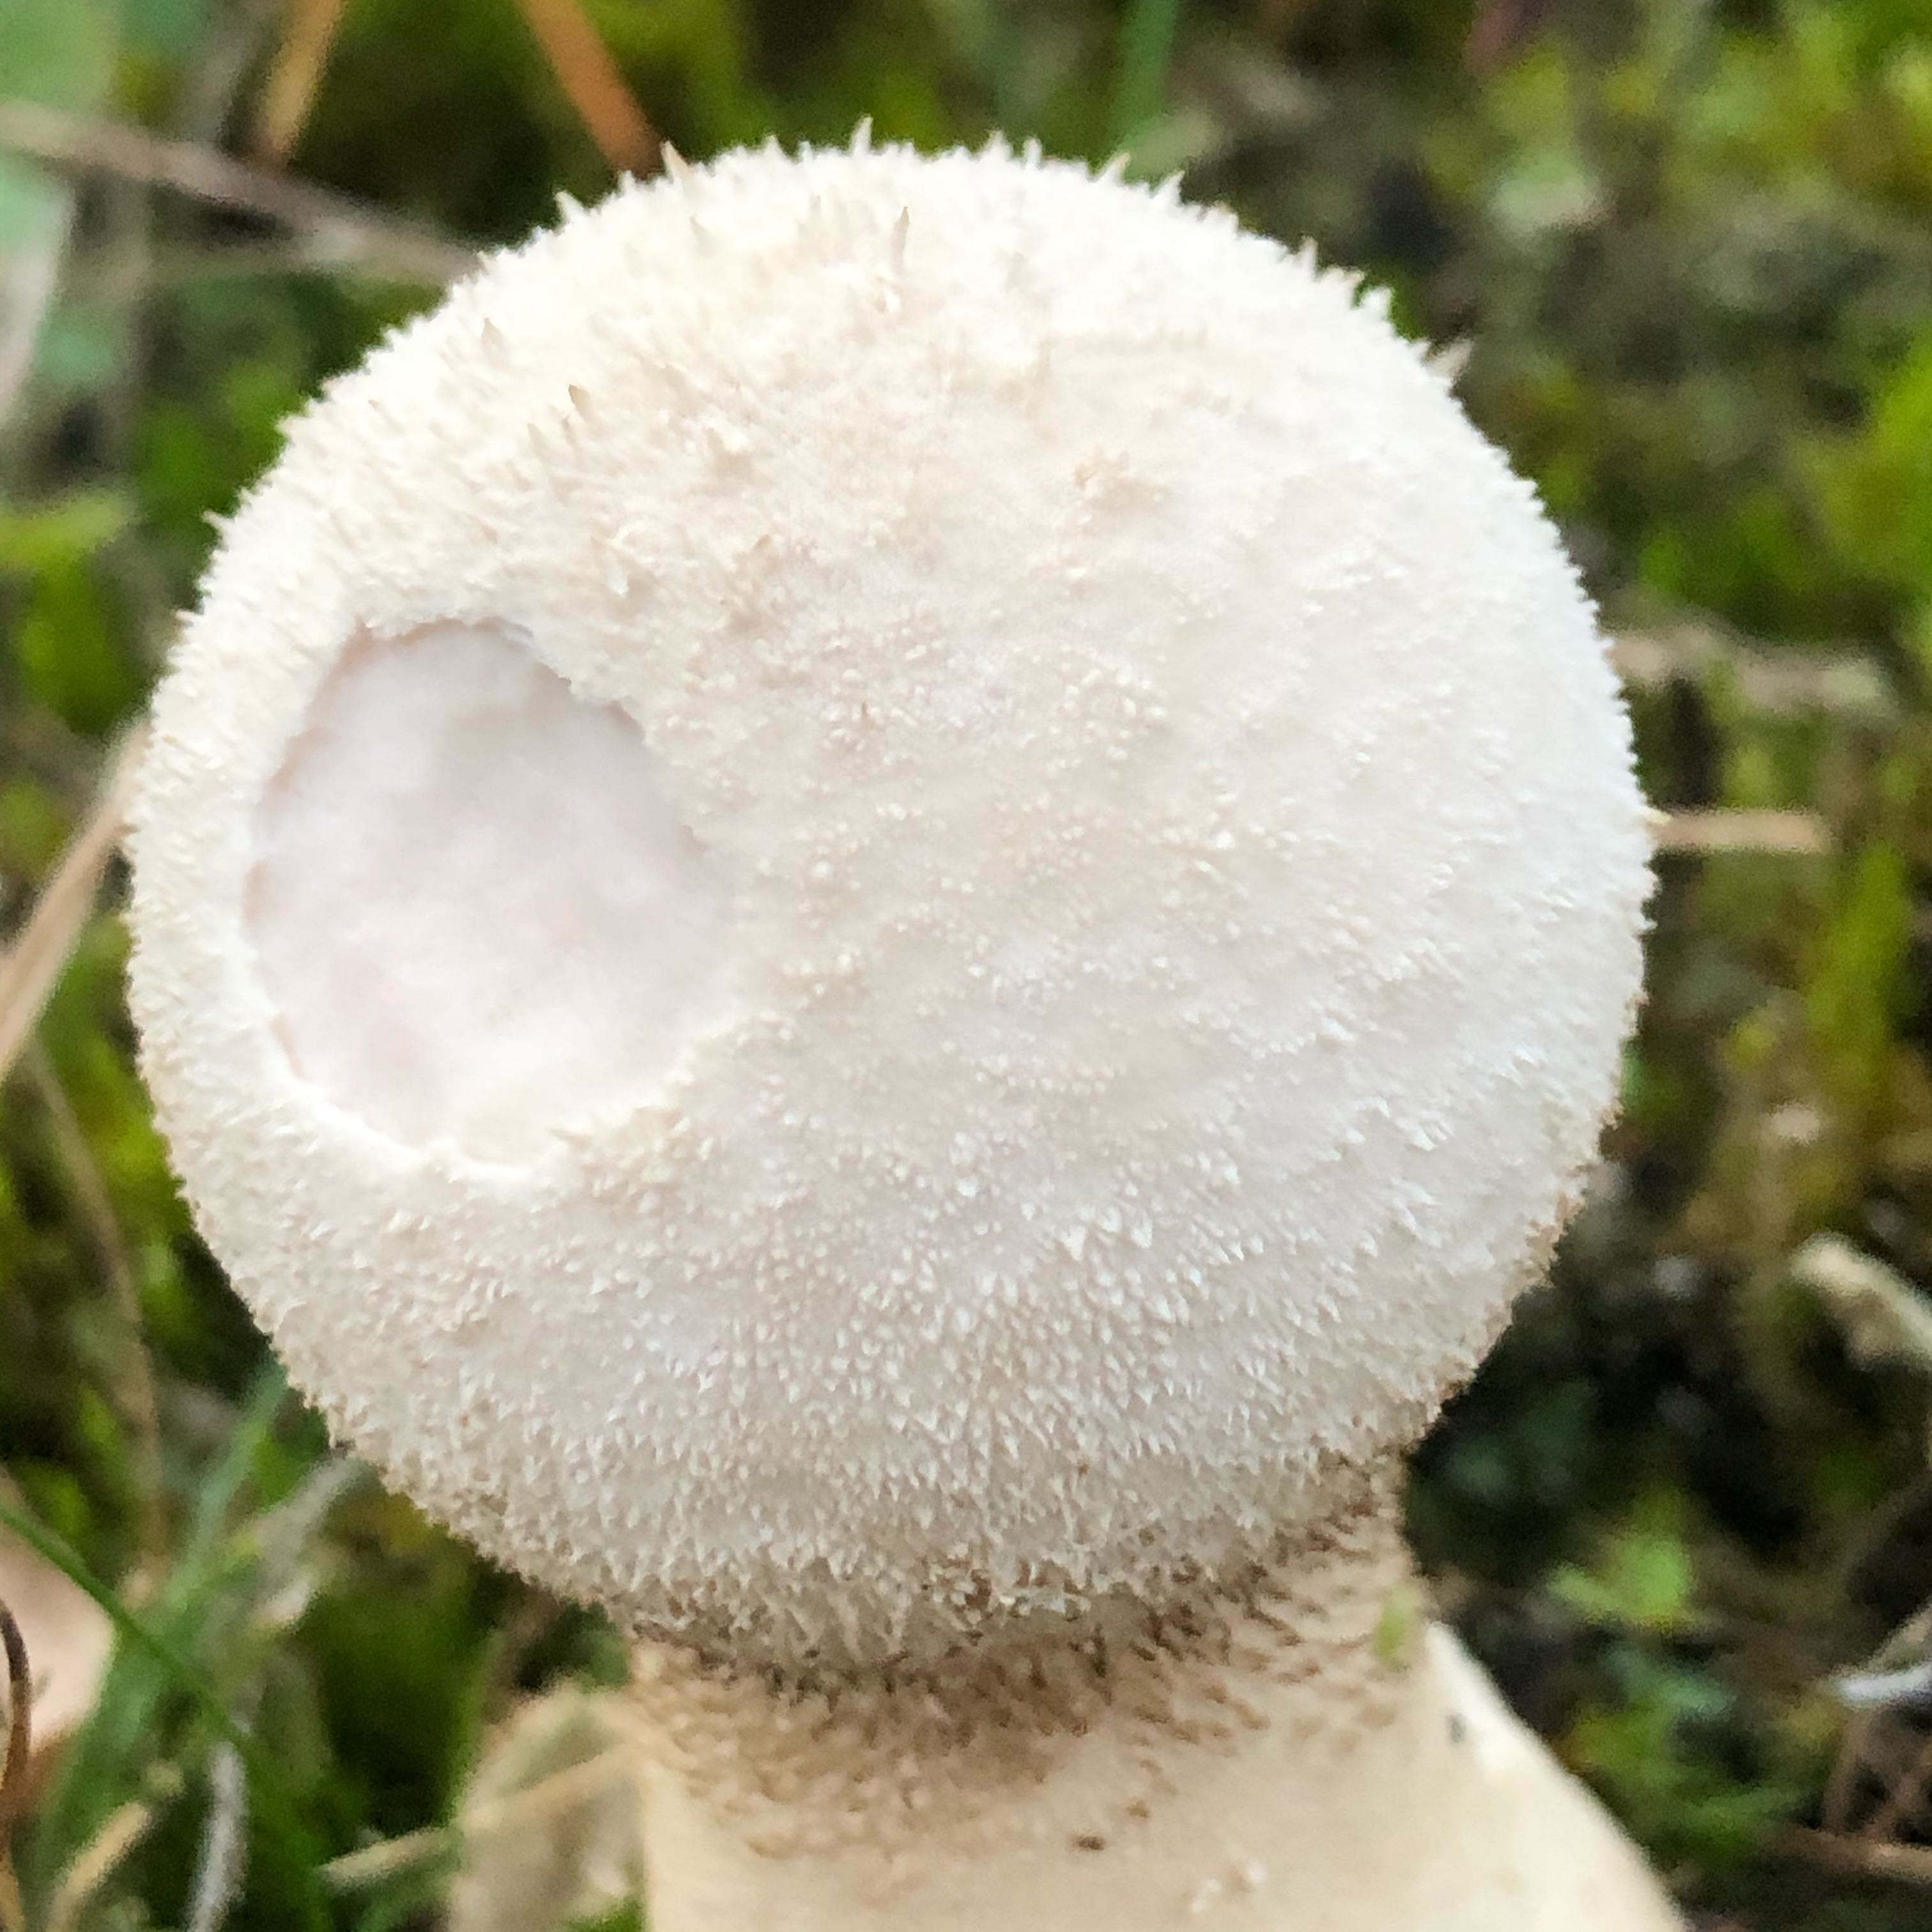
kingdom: Fungi
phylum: Basidiomycota
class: Agaricomycetes
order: Agaricales
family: Lycoperdaceae
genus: Lycoperdon
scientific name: Lycoperdon excipuliforme
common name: højstokket støvbold
